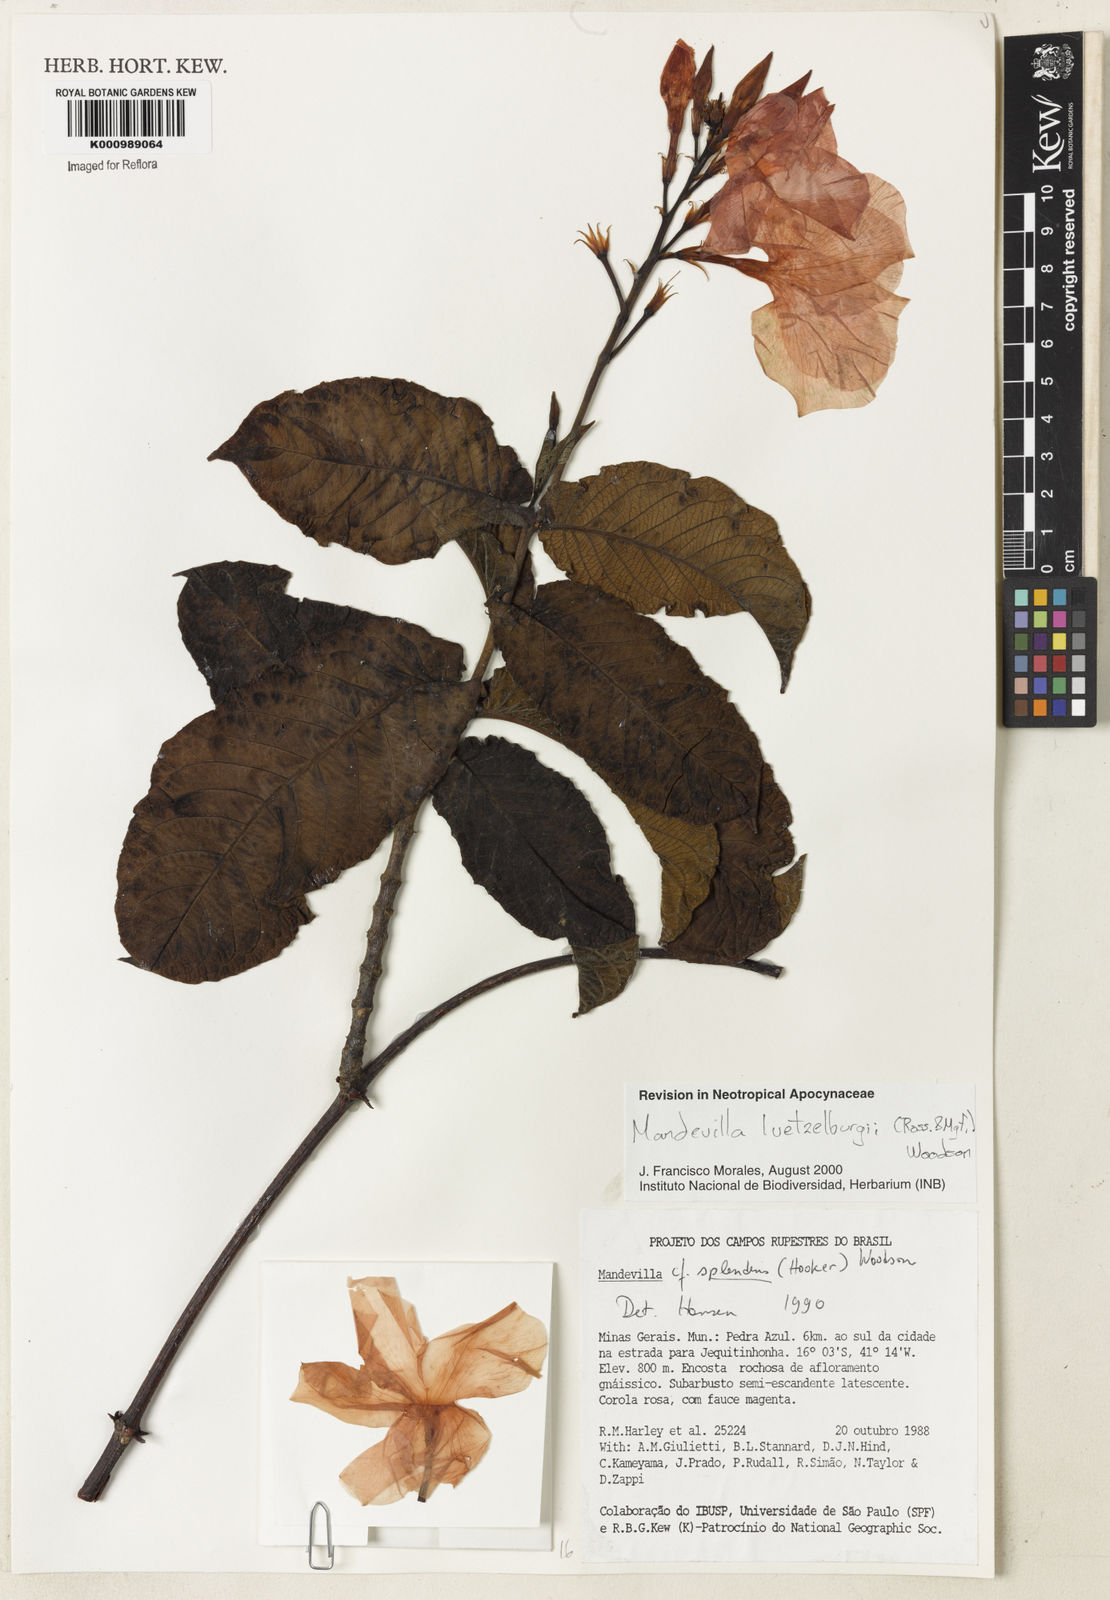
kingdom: Plantae
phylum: Tracheophyta
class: Magnoliopsida
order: Gentianales
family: Apocynaceae
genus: Mandevilla
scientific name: Mandevilla luetzelburgii
